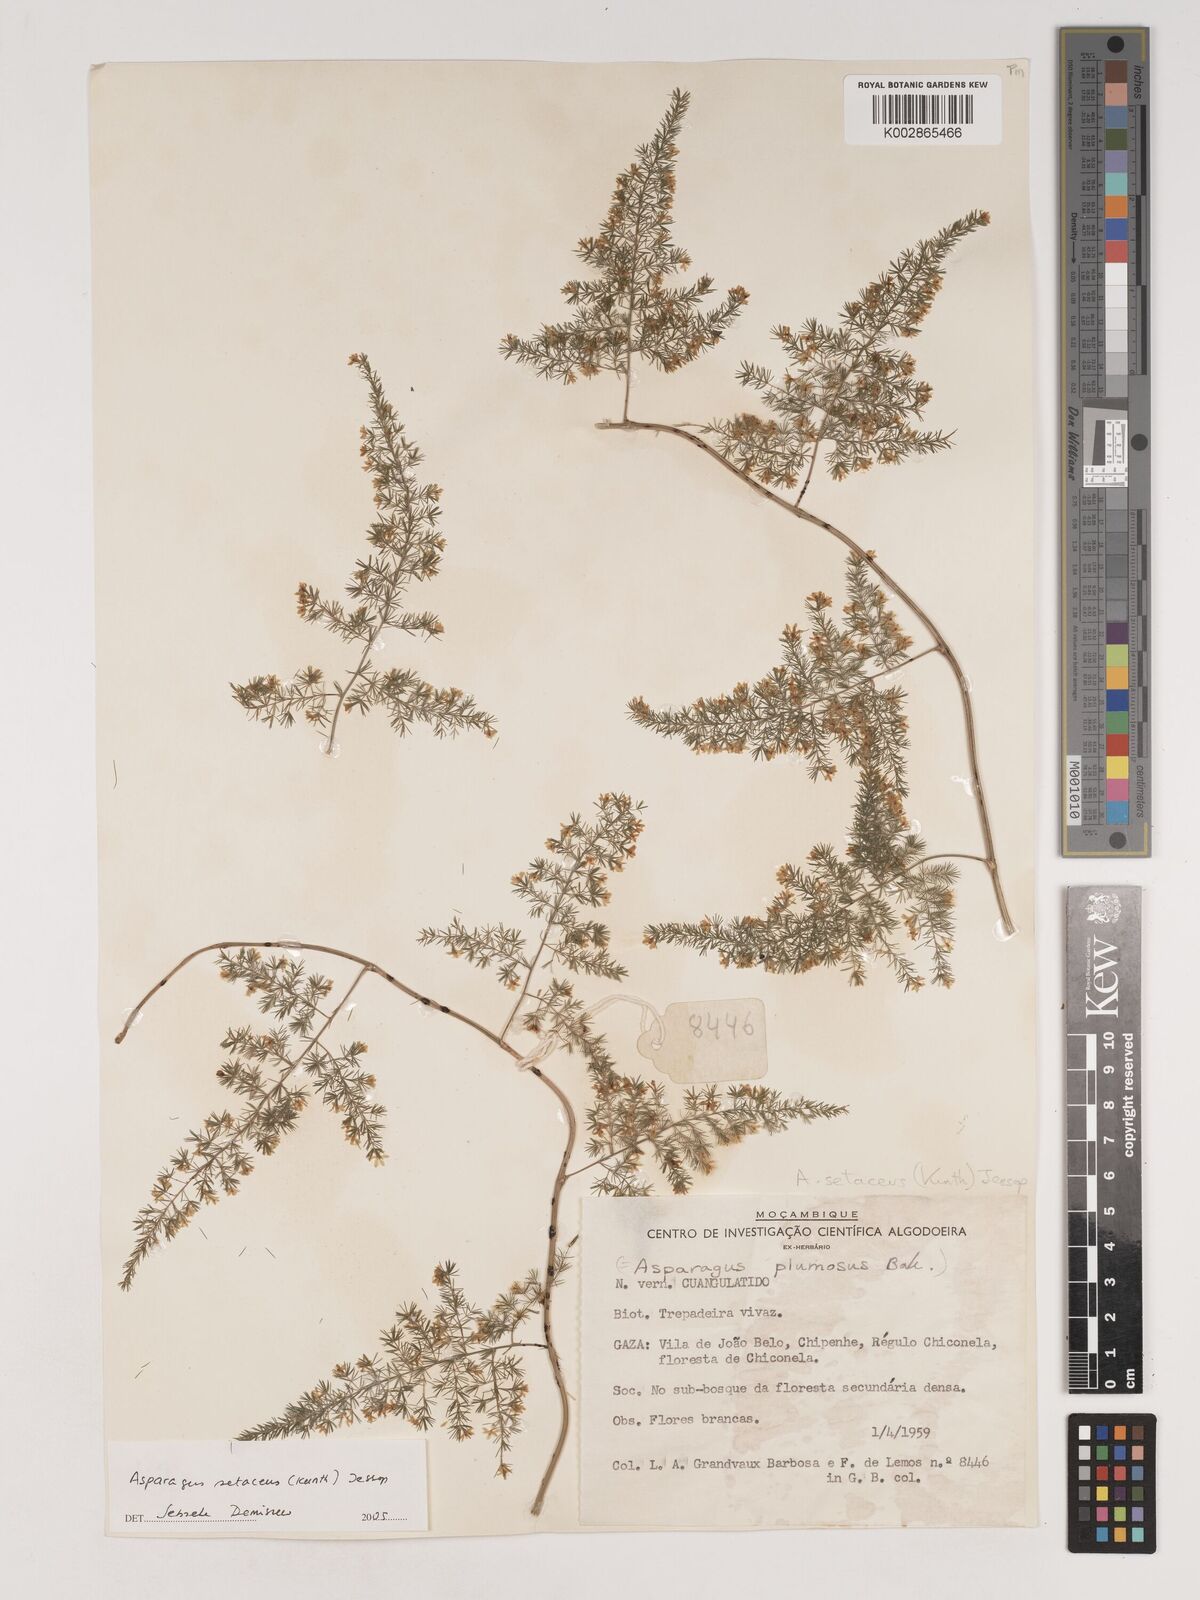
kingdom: Plantae
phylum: Tracheophyta
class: Liliopsida
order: Asparagales
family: Asparagaceae
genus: Asparagus
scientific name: Asparagus setaceus
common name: Common asparagus fern
